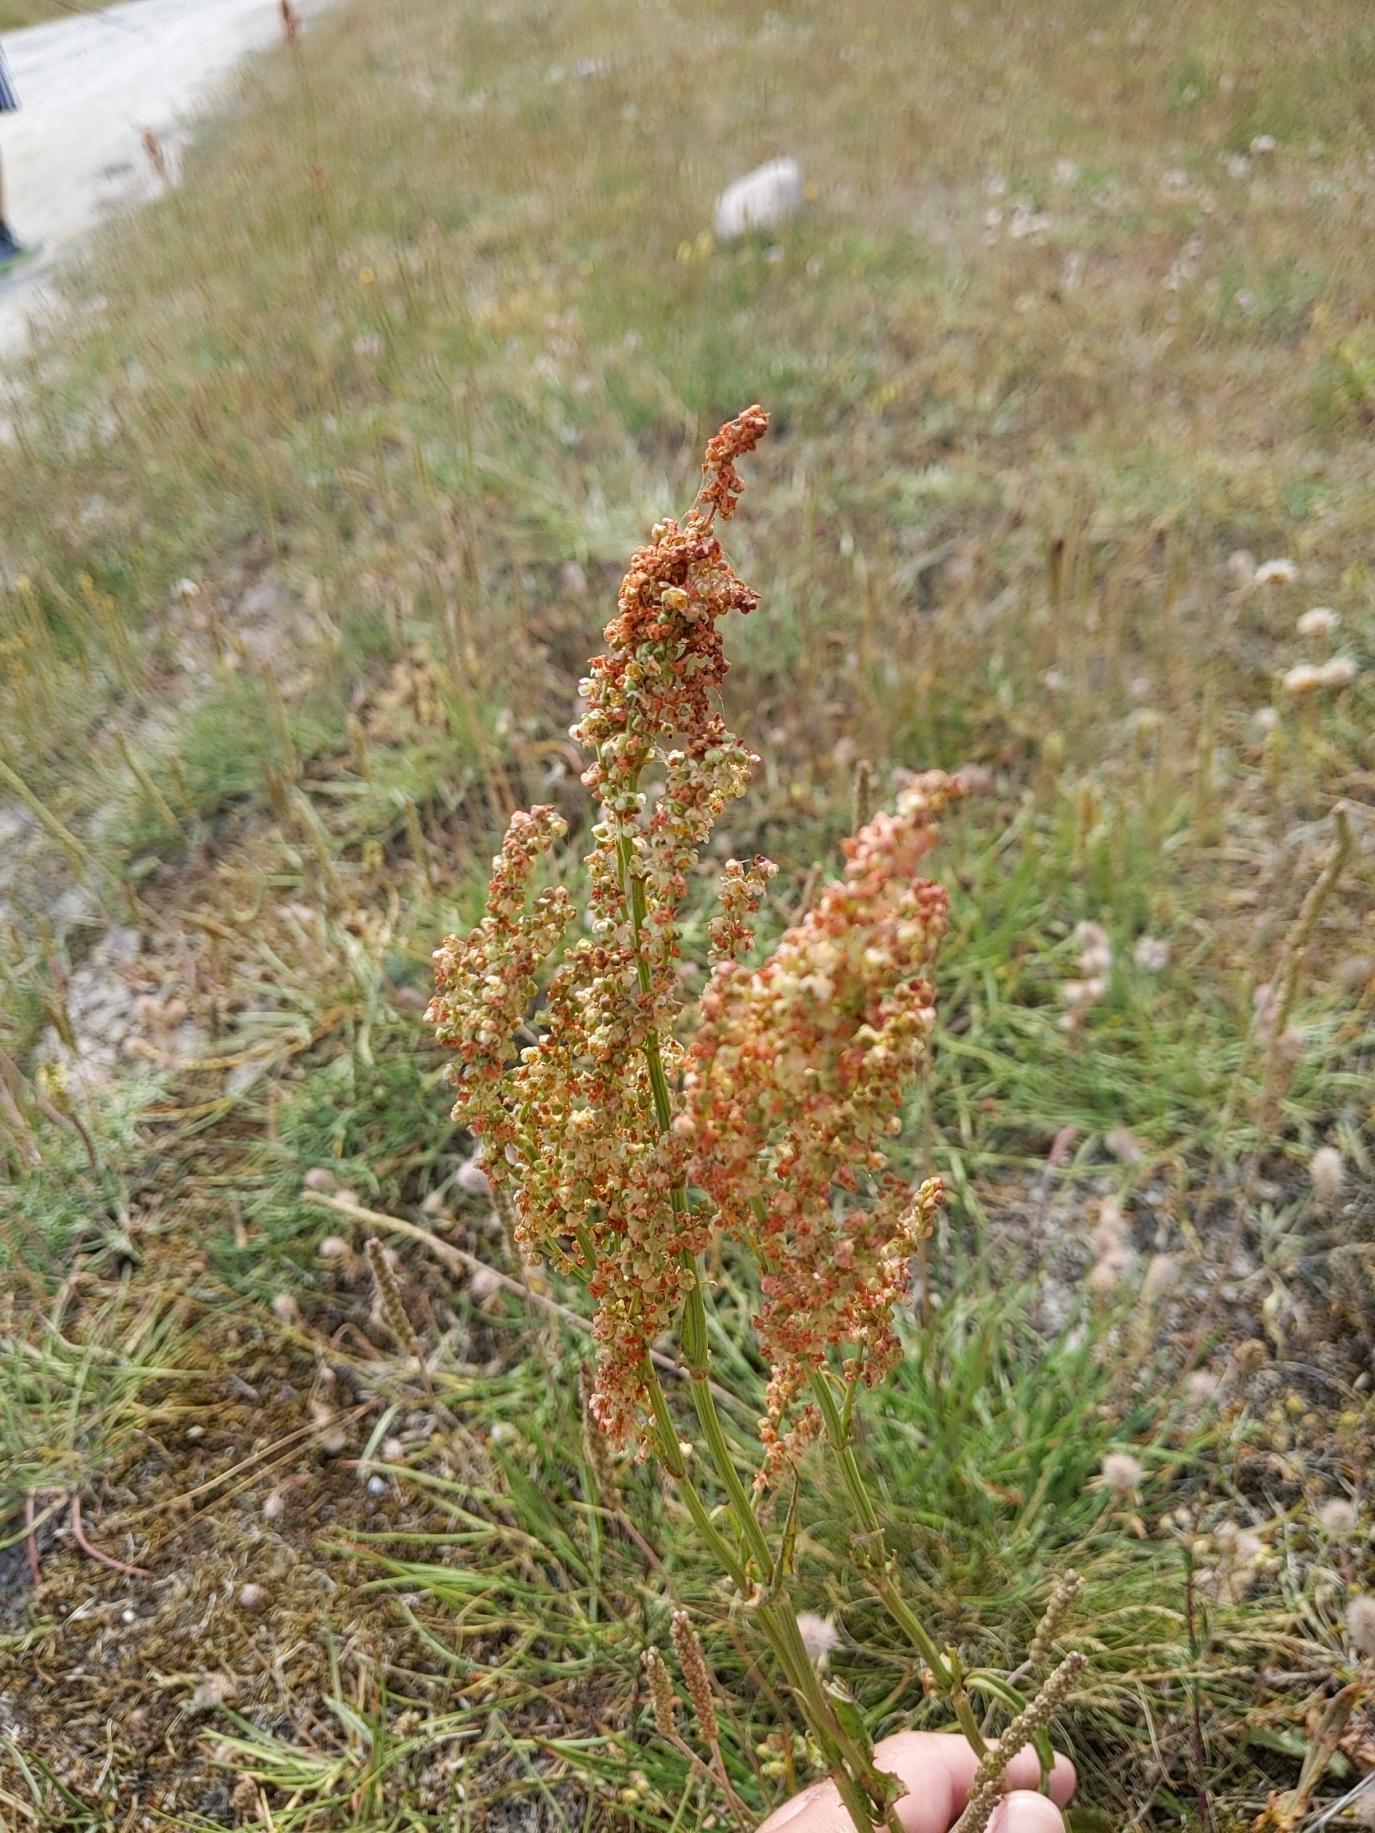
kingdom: Plantae
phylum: Tracheophyta
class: Magnoliopsida
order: Caryophyllales
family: Polygonaceae
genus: Rumex
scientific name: Rumex thyrsiflorus
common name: Dusk-syre
